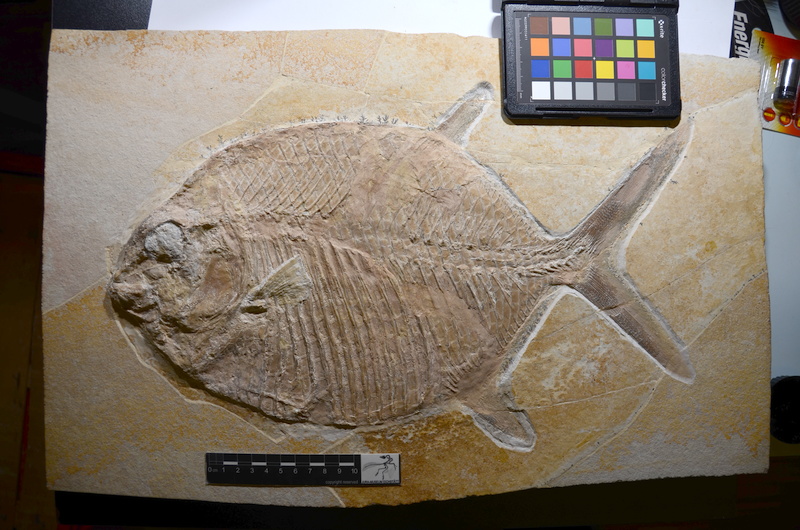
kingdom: Animalia
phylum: Chordata
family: Gyrodontidae
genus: Gyrodus
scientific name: Gyrodus circularis
